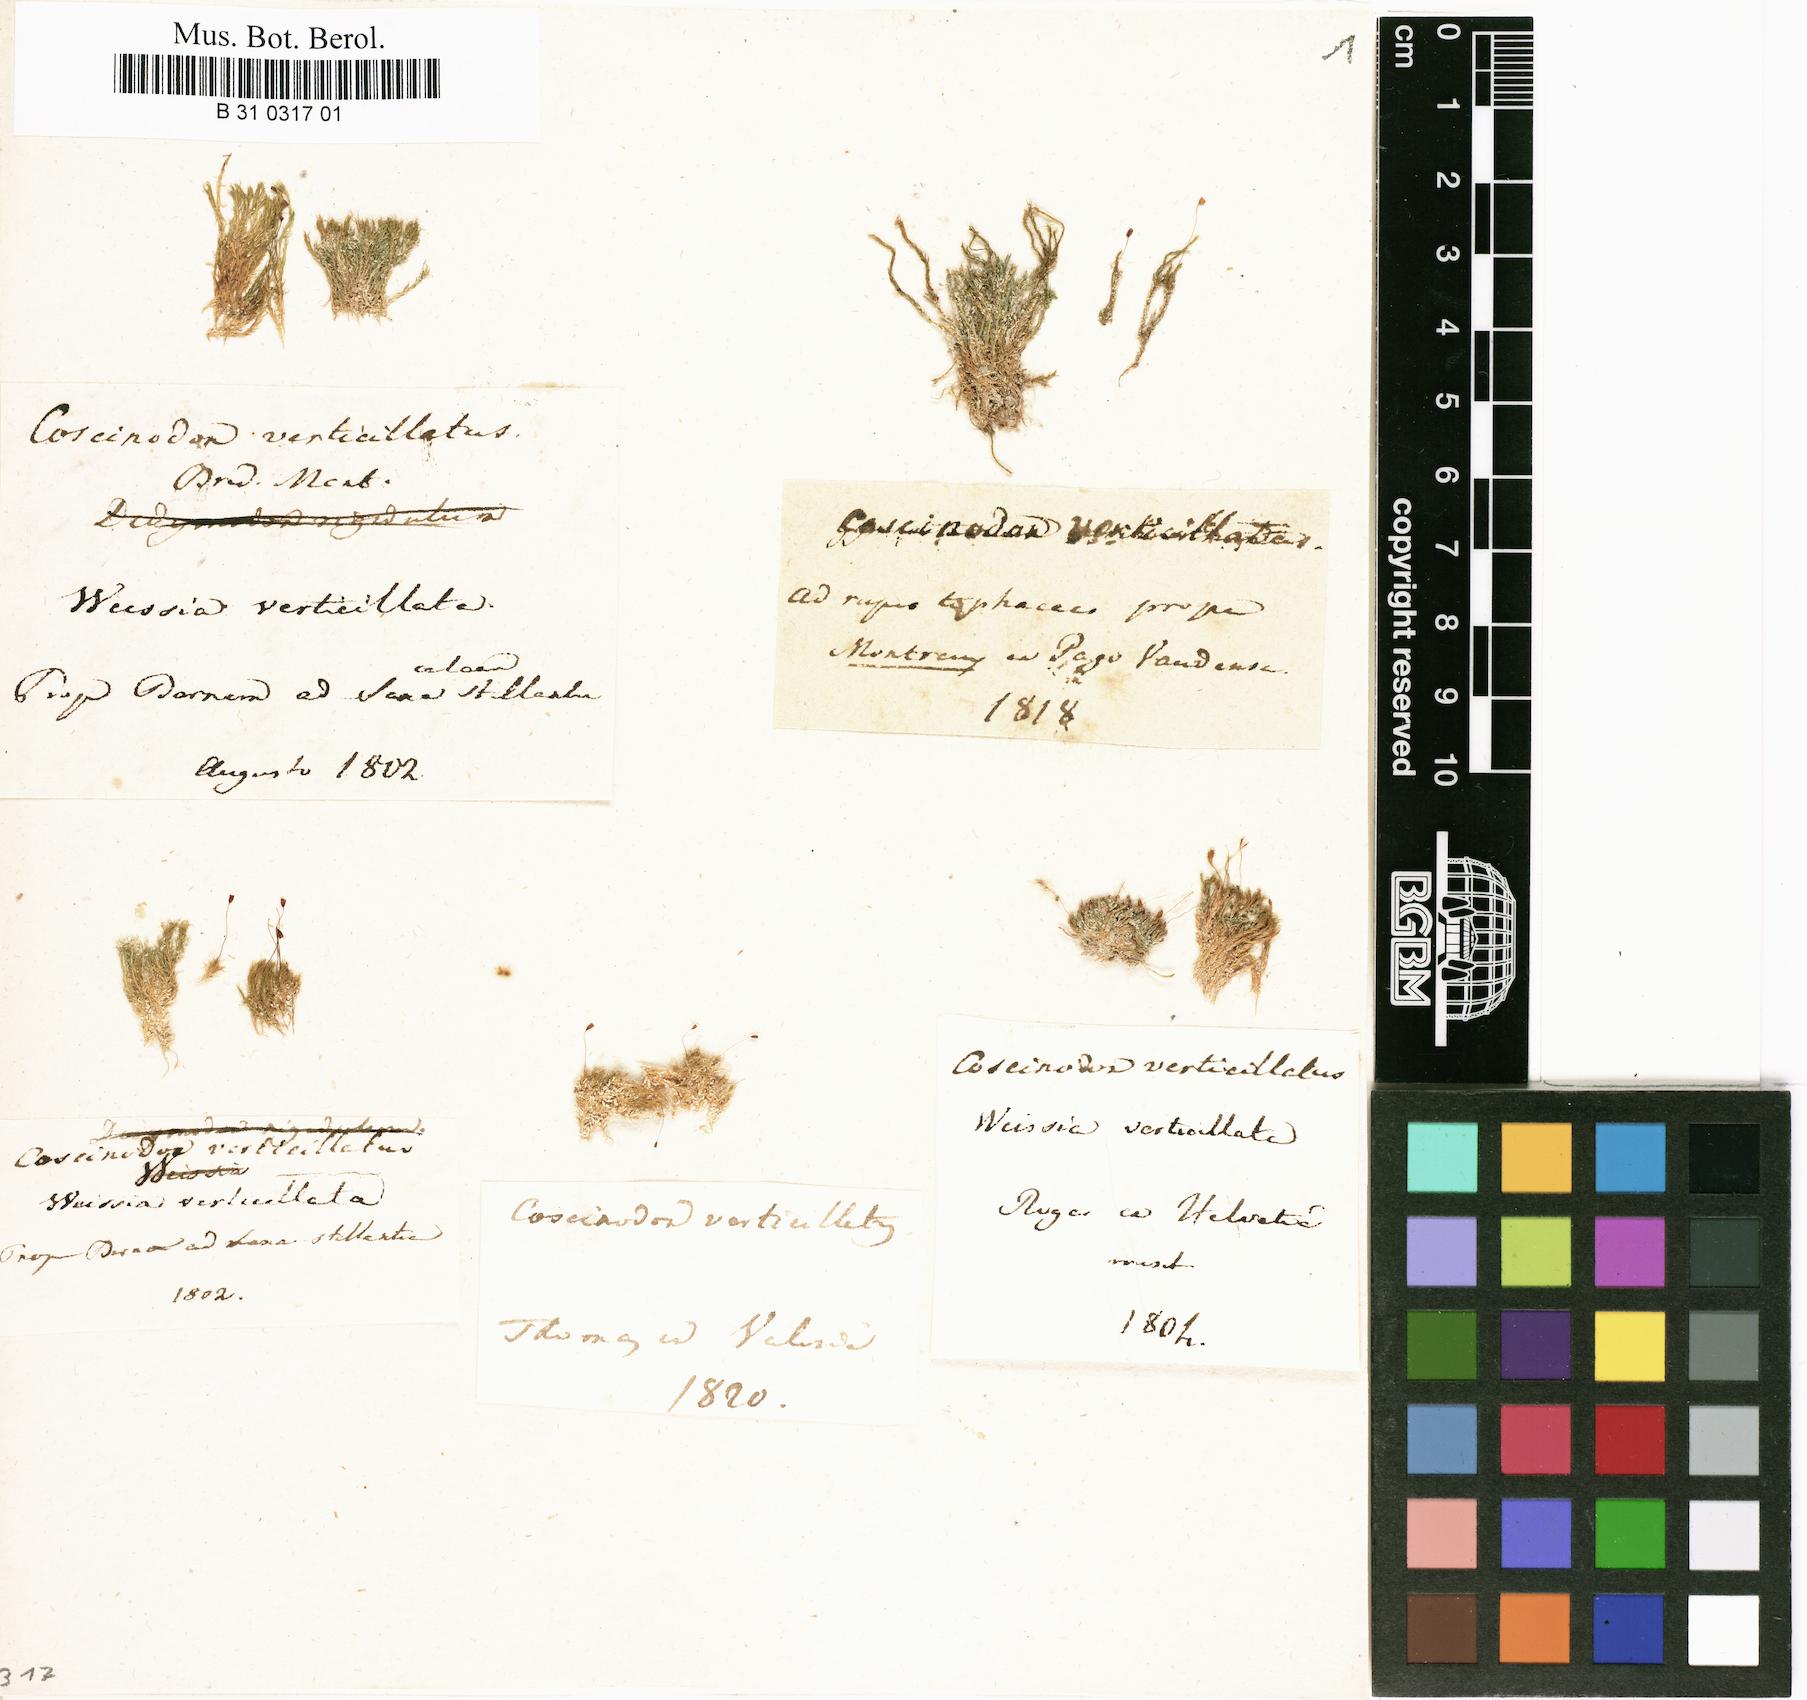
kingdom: Plantae
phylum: Bryophyta
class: Bryopsida
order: Pottiales
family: Pottiaceae
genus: Eucladium
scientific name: Eucladium verticillatum
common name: Whorled tufa-moss
